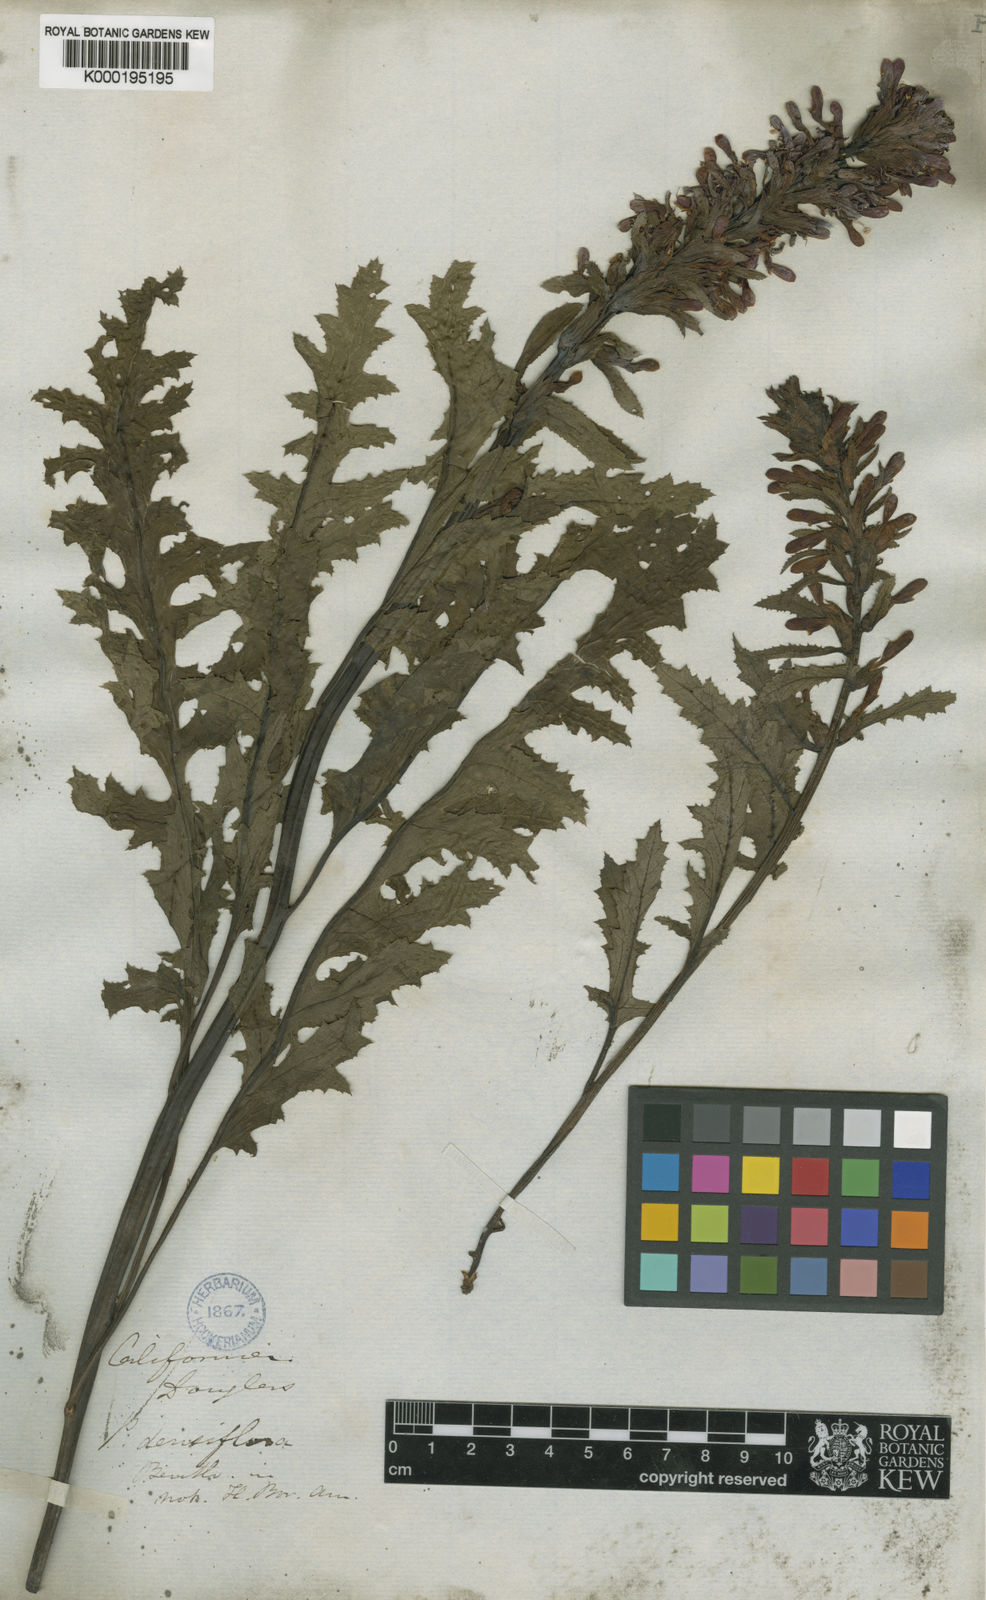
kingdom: Plantae
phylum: Tracheophyta
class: Magnoliopsida
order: Lamiales
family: Orobanchaceae
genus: Pedicularis
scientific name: Pedicularis densiflora
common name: Indian warrior
